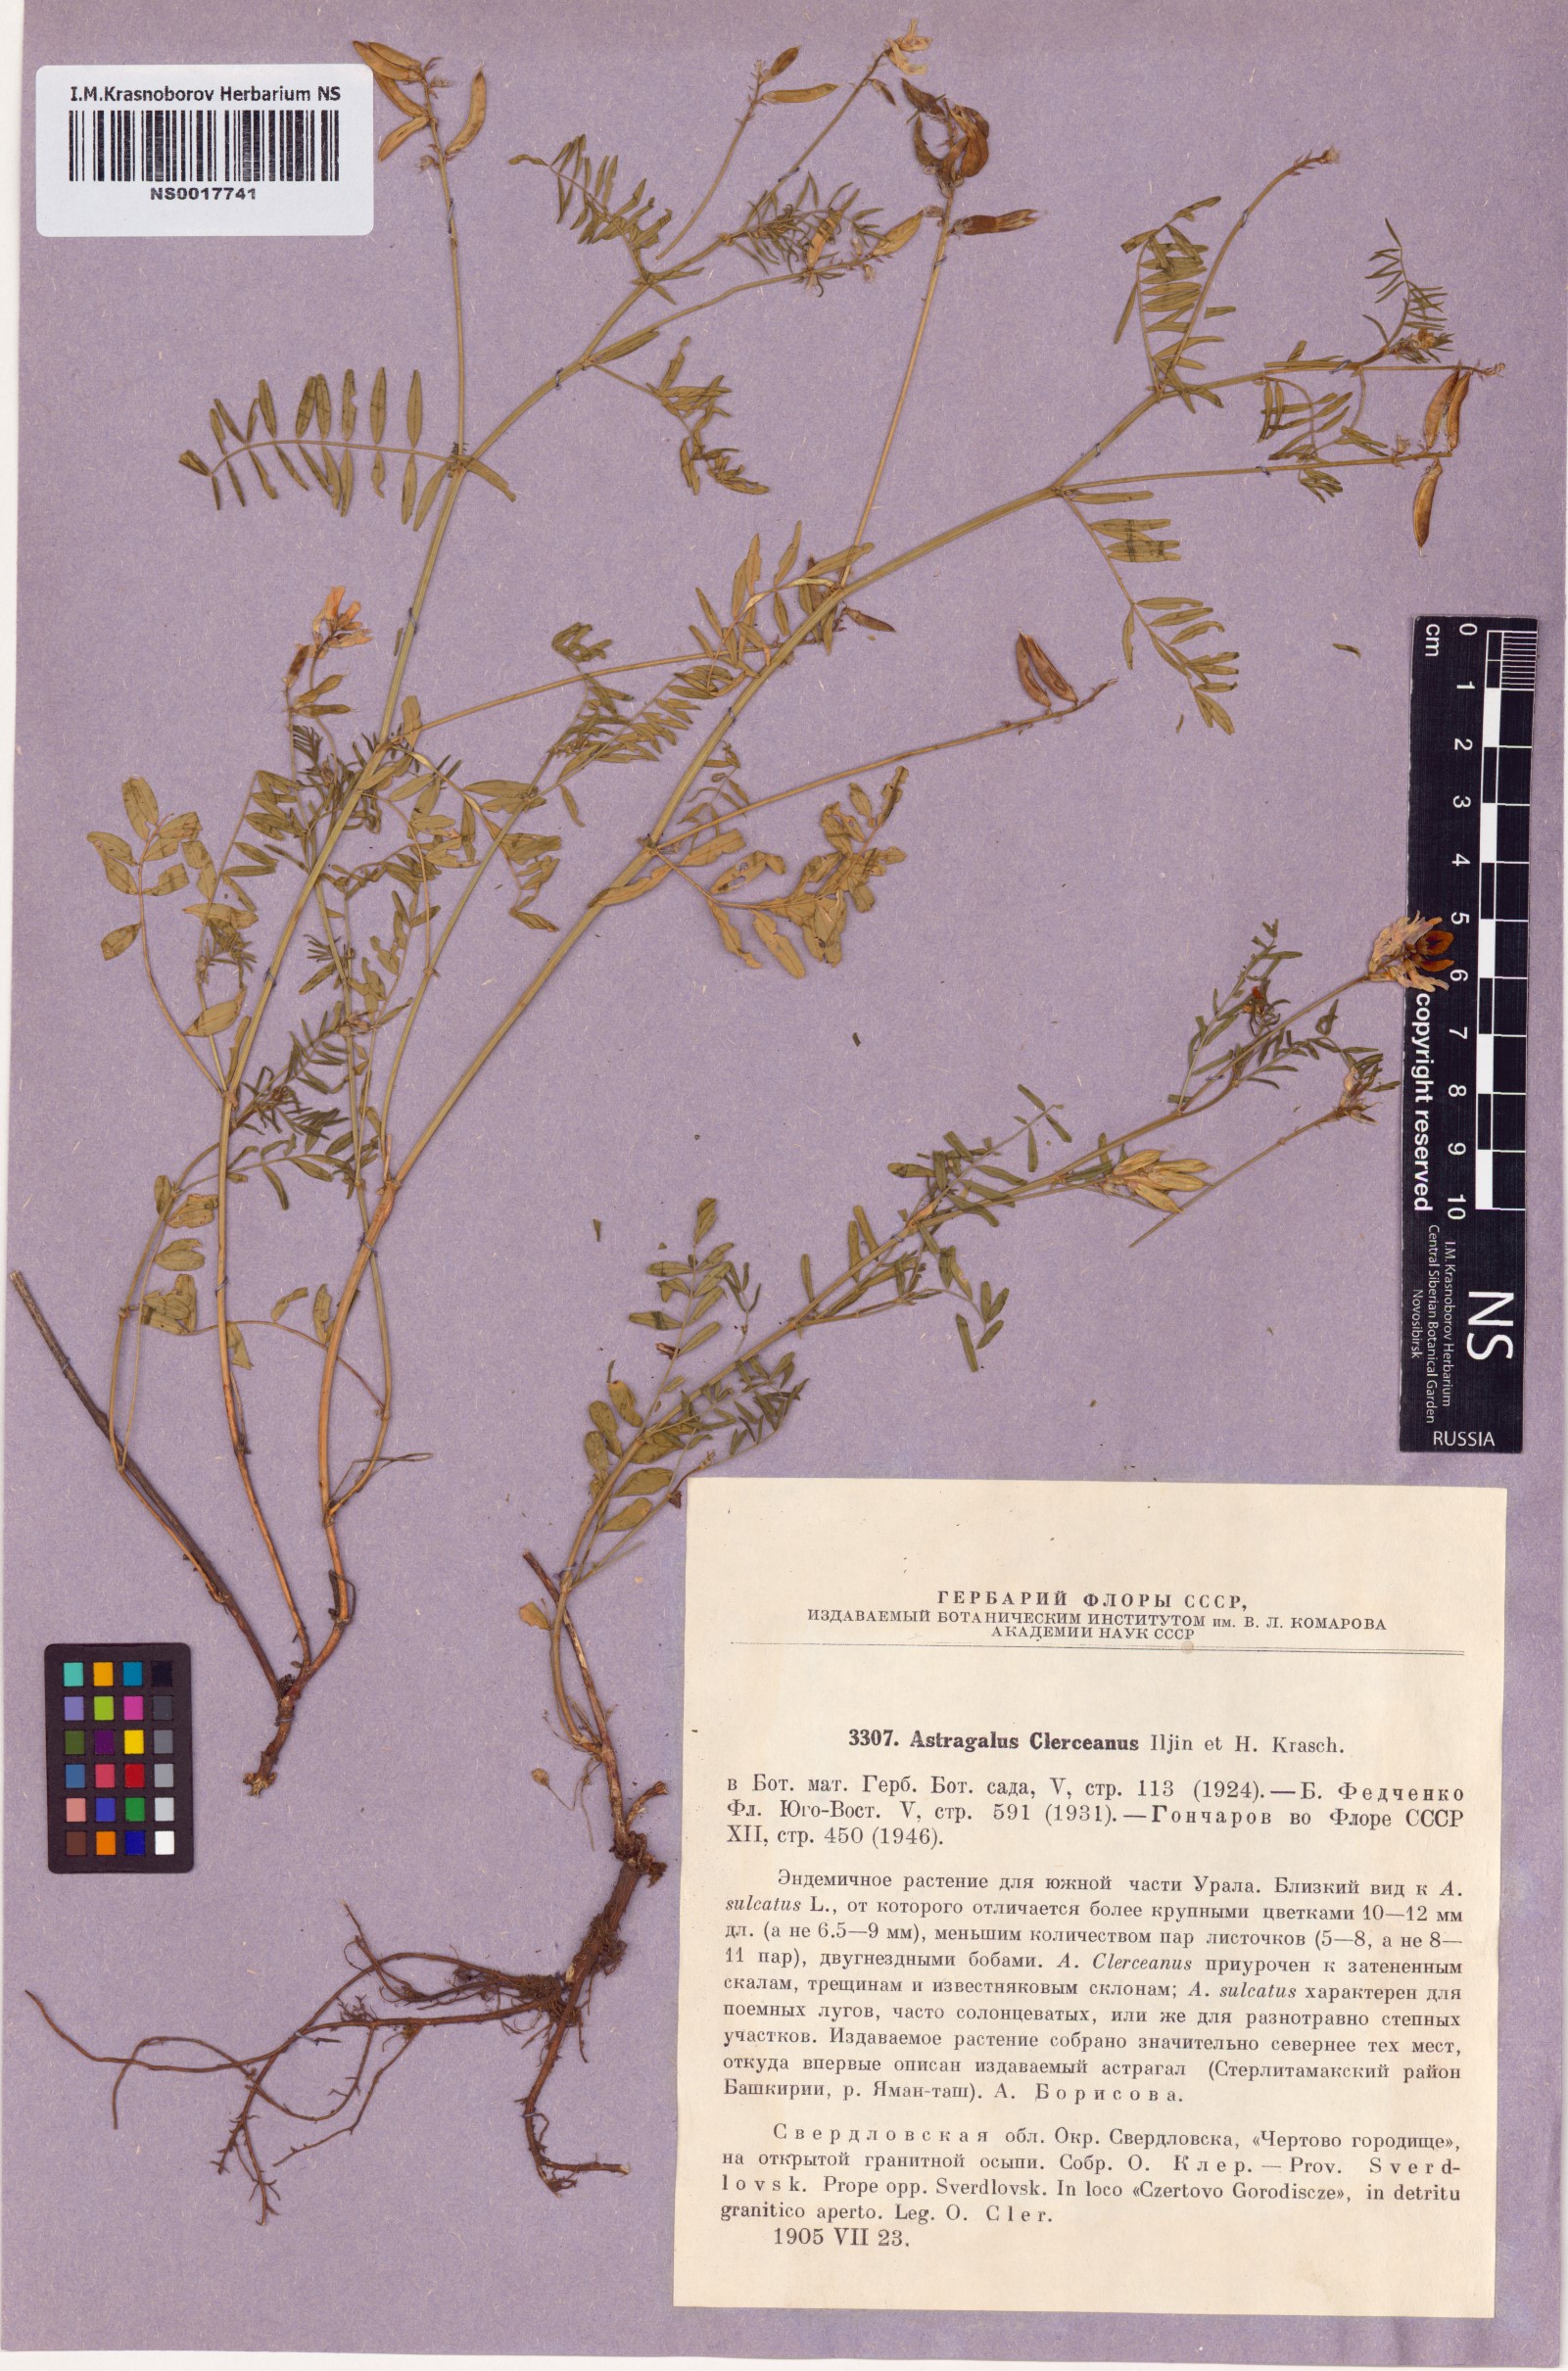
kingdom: Plantae
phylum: Tracheophyta
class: Magnoliopsida
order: Fabales
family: Fabaceae
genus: Astragalus
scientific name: Astragalus clerceanus
